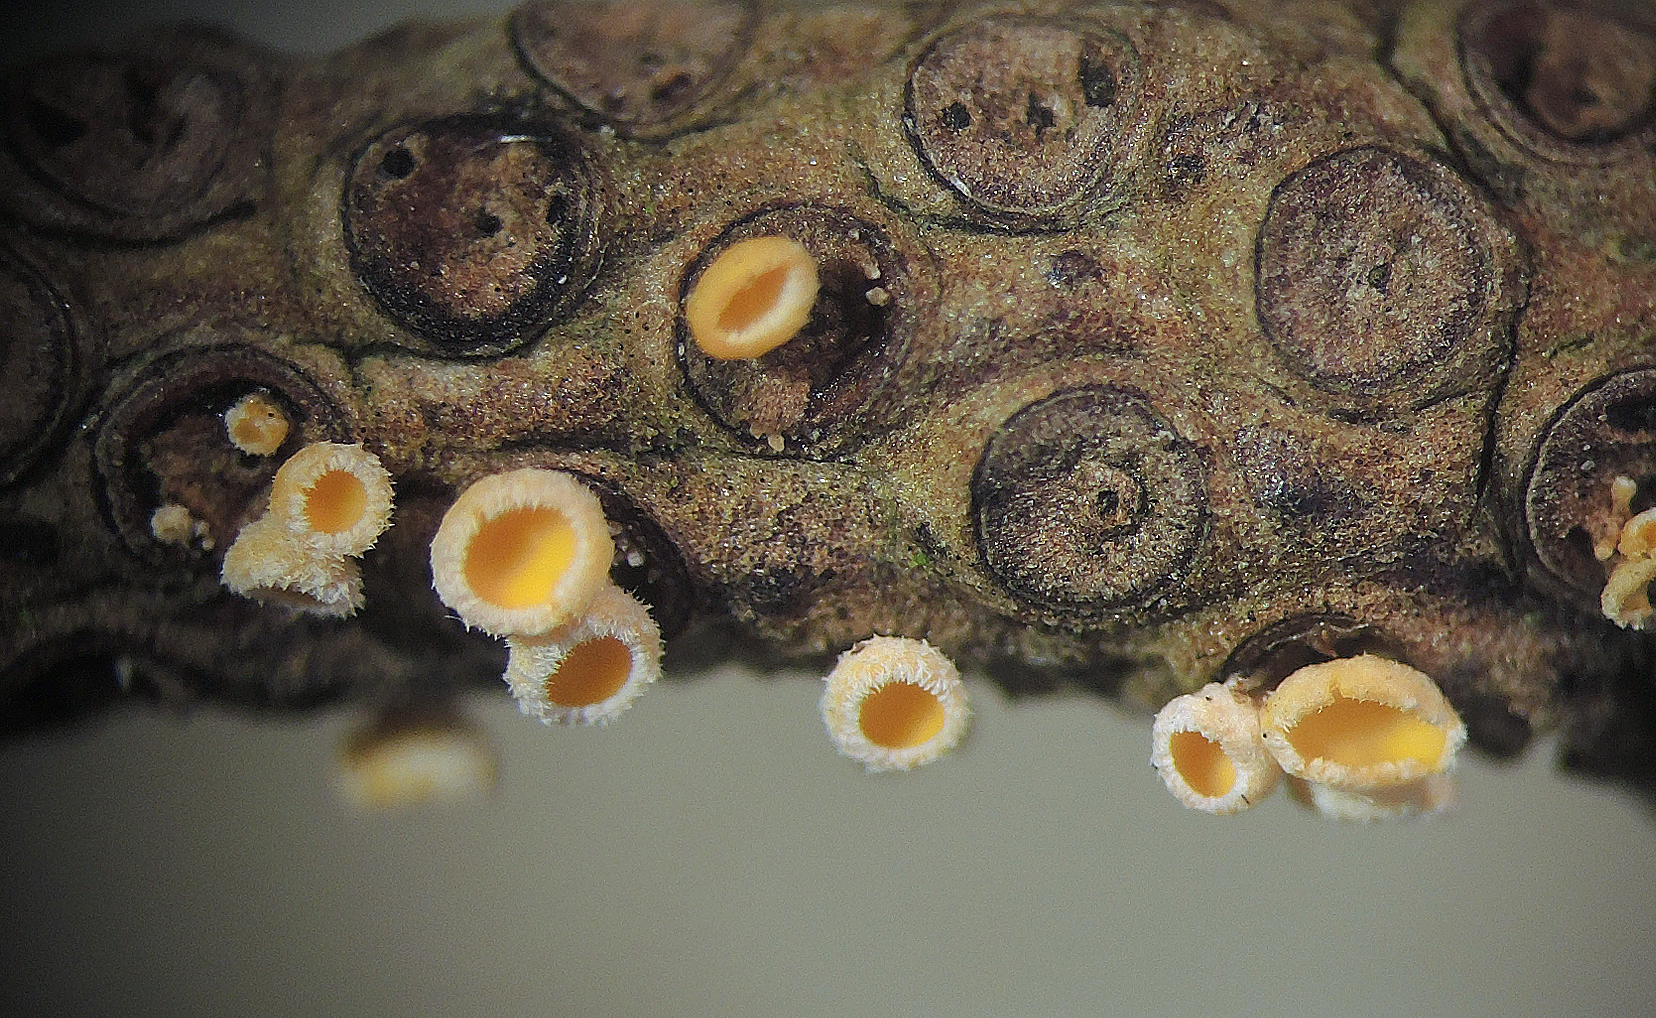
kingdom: Fungi
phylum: Ascomycota
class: Leotiomycetes
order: Helotiales
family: Lachnaceae
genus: Lachnellula
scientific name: Lachnellula subtilissima
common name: gran-frynseskive
